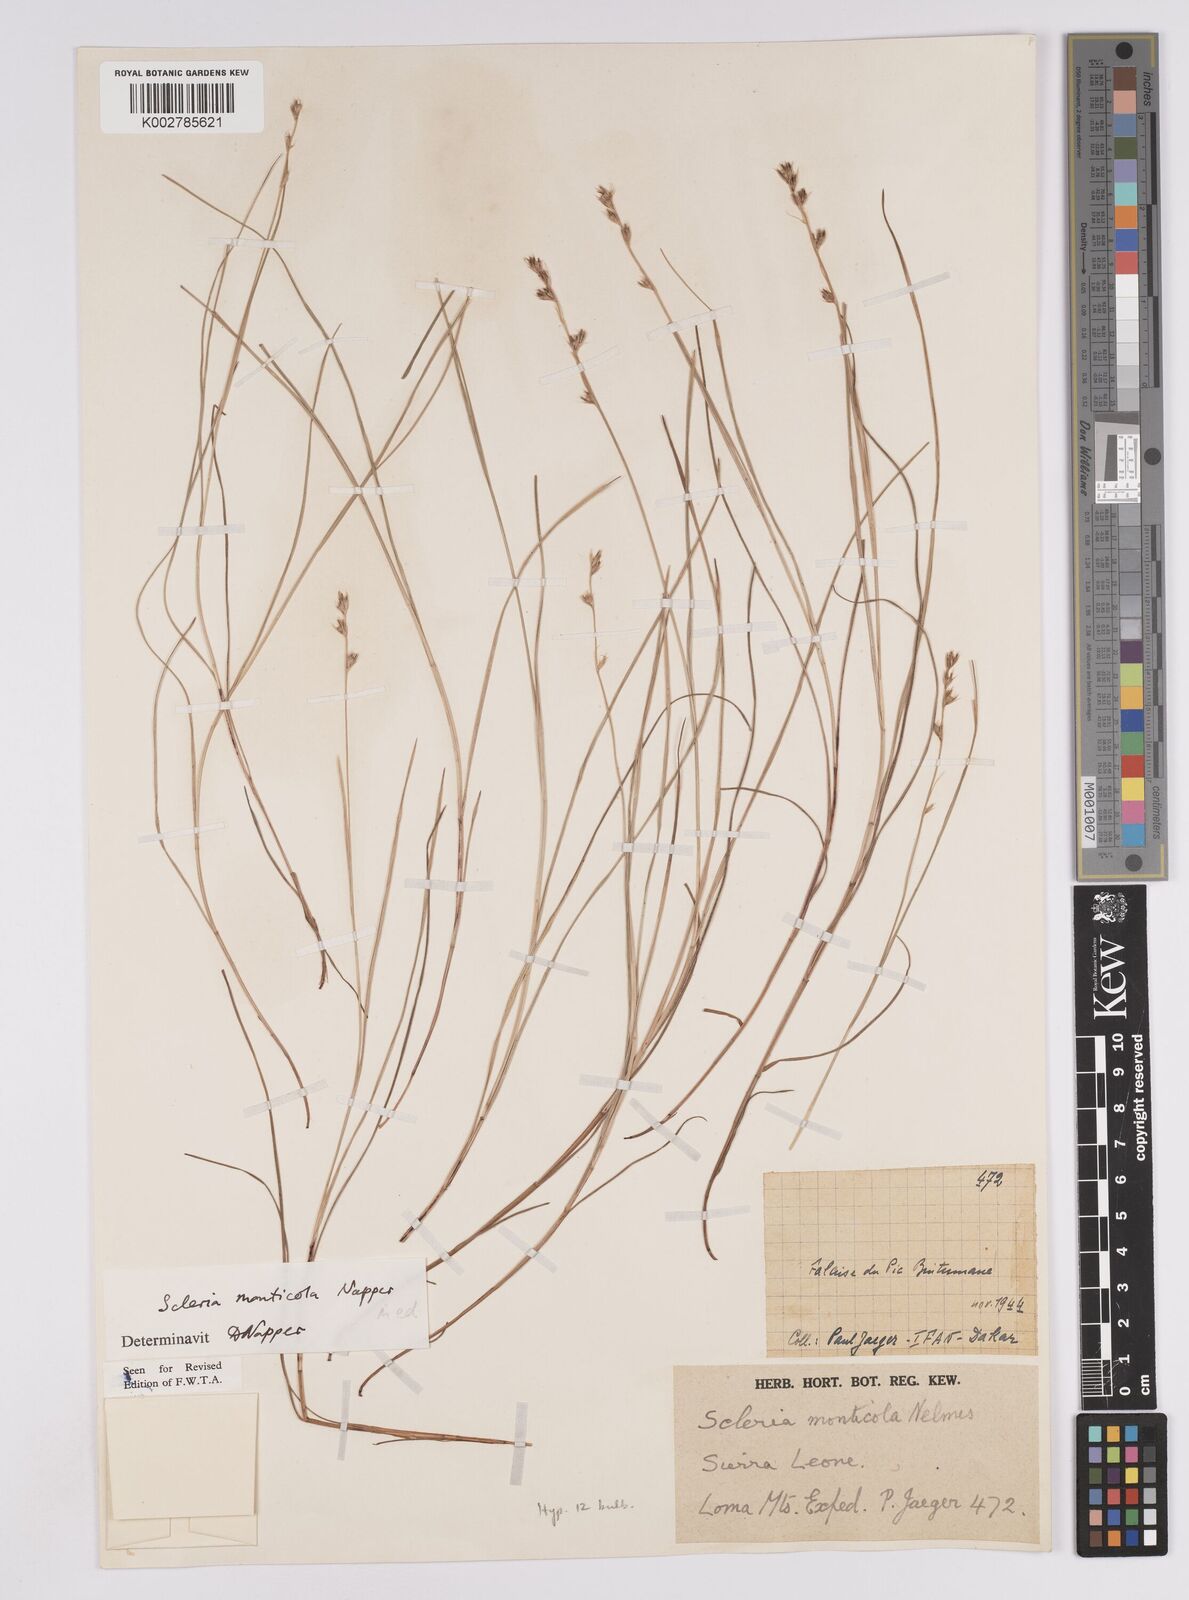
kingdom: Plantae
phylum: Tracheophyta
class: Liliopsida
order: Poales
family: Cyperaceae
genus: Scleria
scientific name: Scleria monticola
